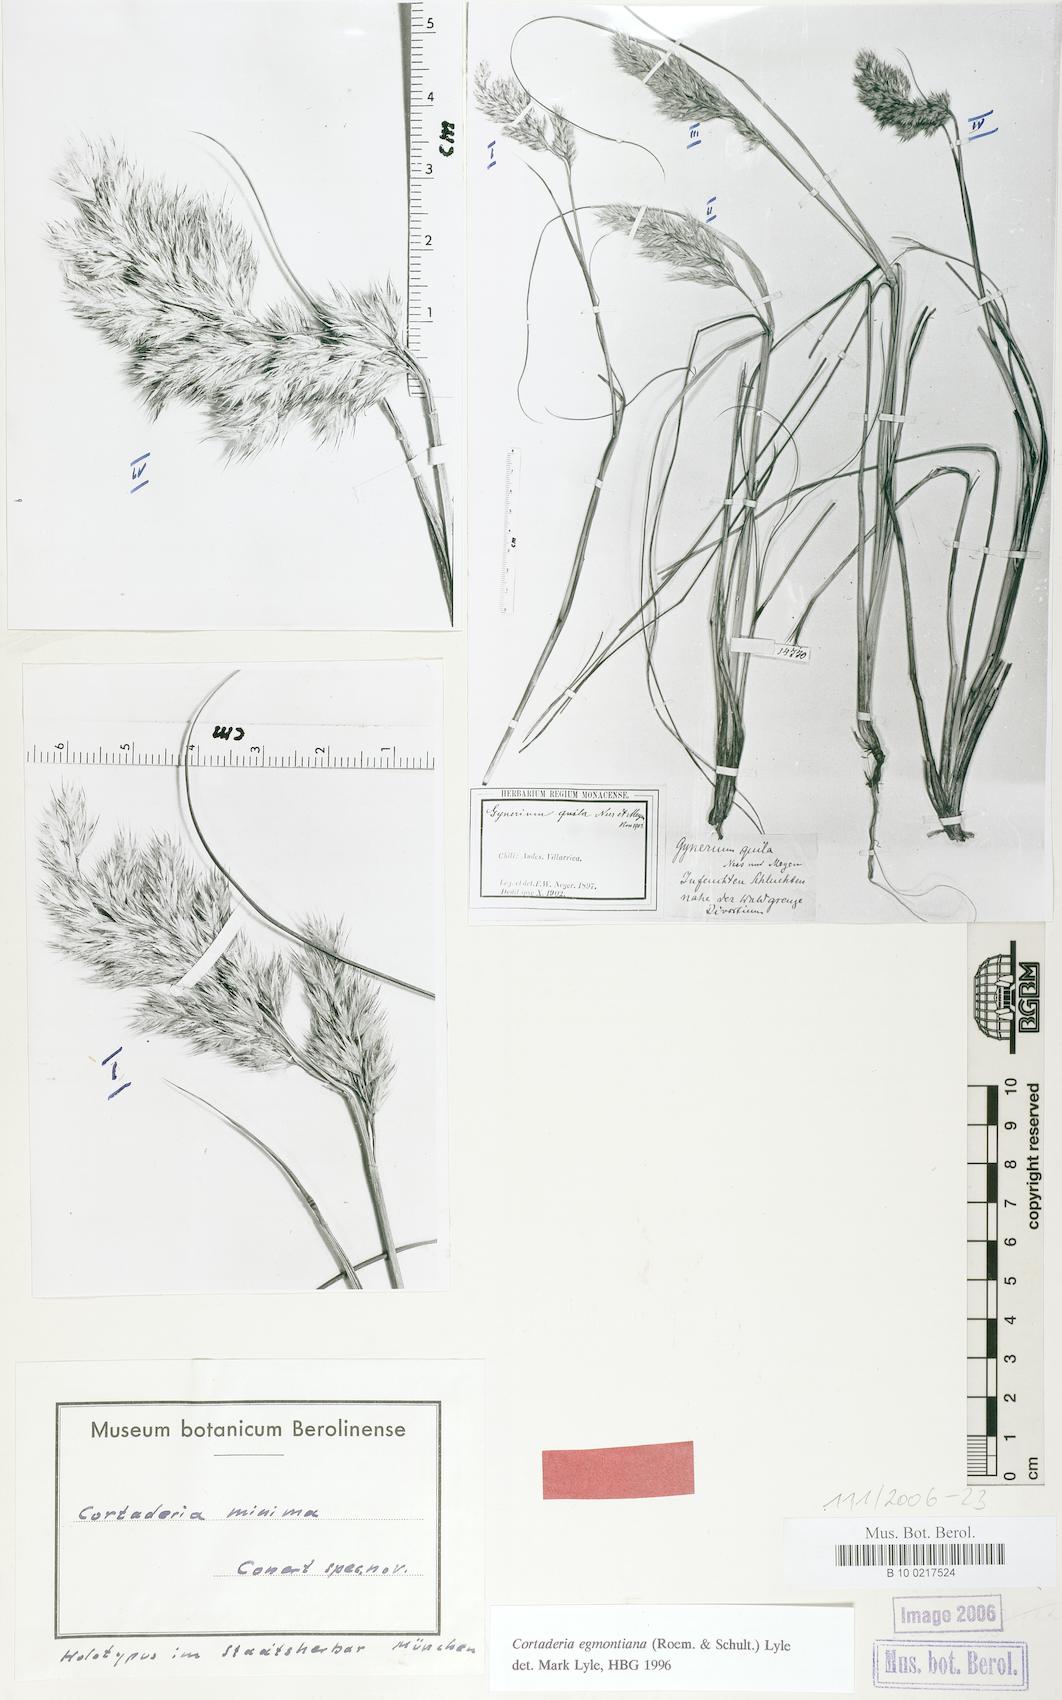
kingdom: Plantae
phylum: Tracheophyta
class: Liliopsida
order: Poales
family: Poaceae
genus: Cortaderia
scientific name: Cortaderia egmontiana
